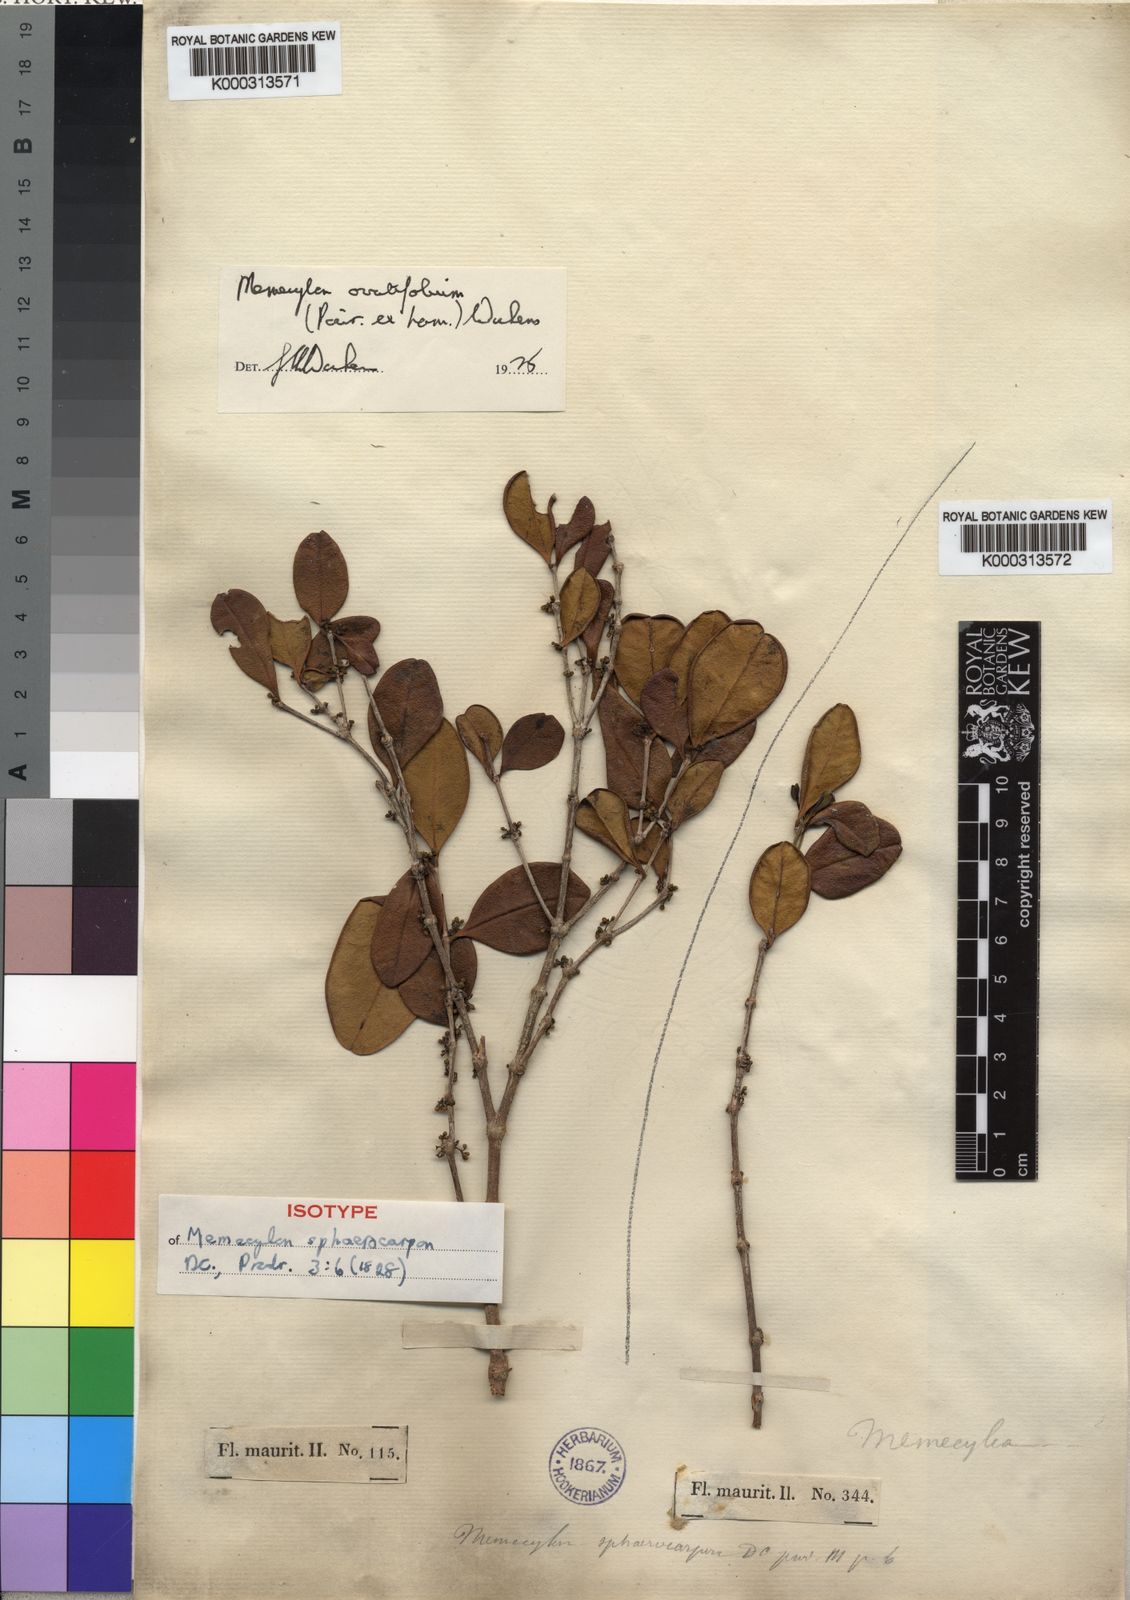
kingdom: Plantae
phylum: Tracheophyta
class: Magnoliopsida
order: Myrtales
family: Melastomataceae
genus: Memecylon
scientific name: Memecylon ovatifolium
